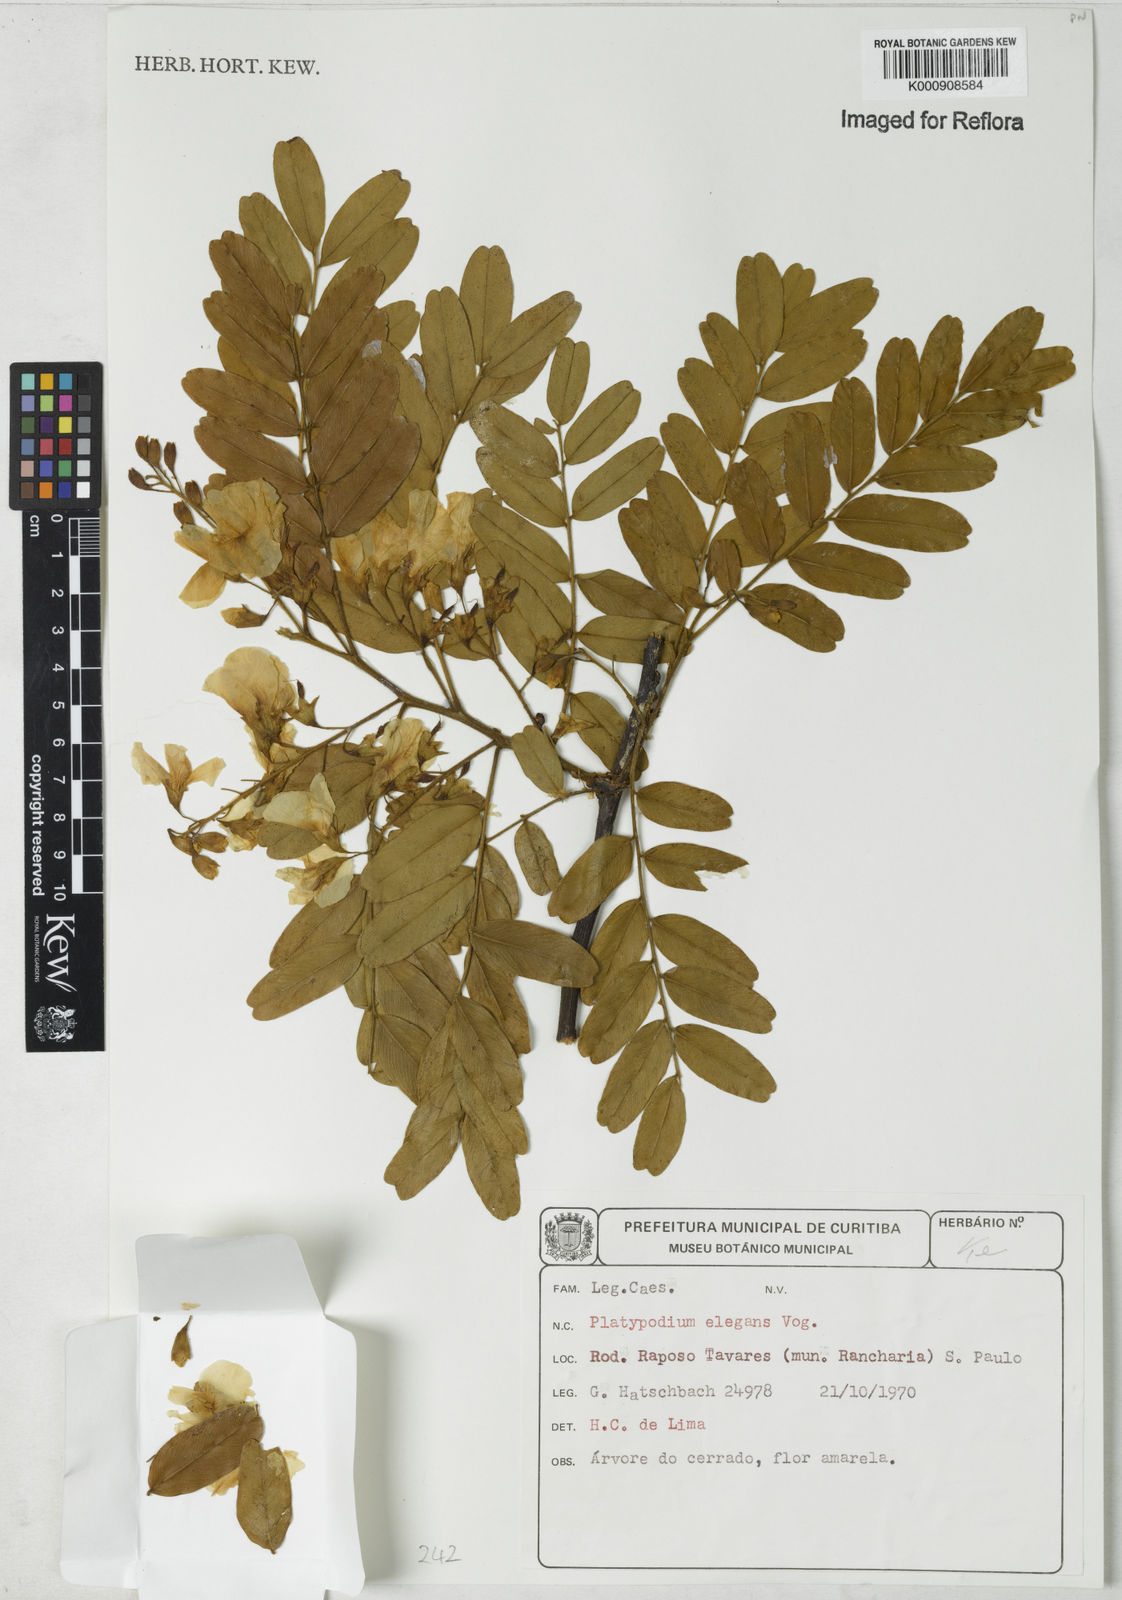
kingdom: Plantae
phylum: Tracheophyta
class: Magnoliopsida
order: Fabales
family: Fabaceae
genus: Platypodium
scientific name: Platypodium elegans
